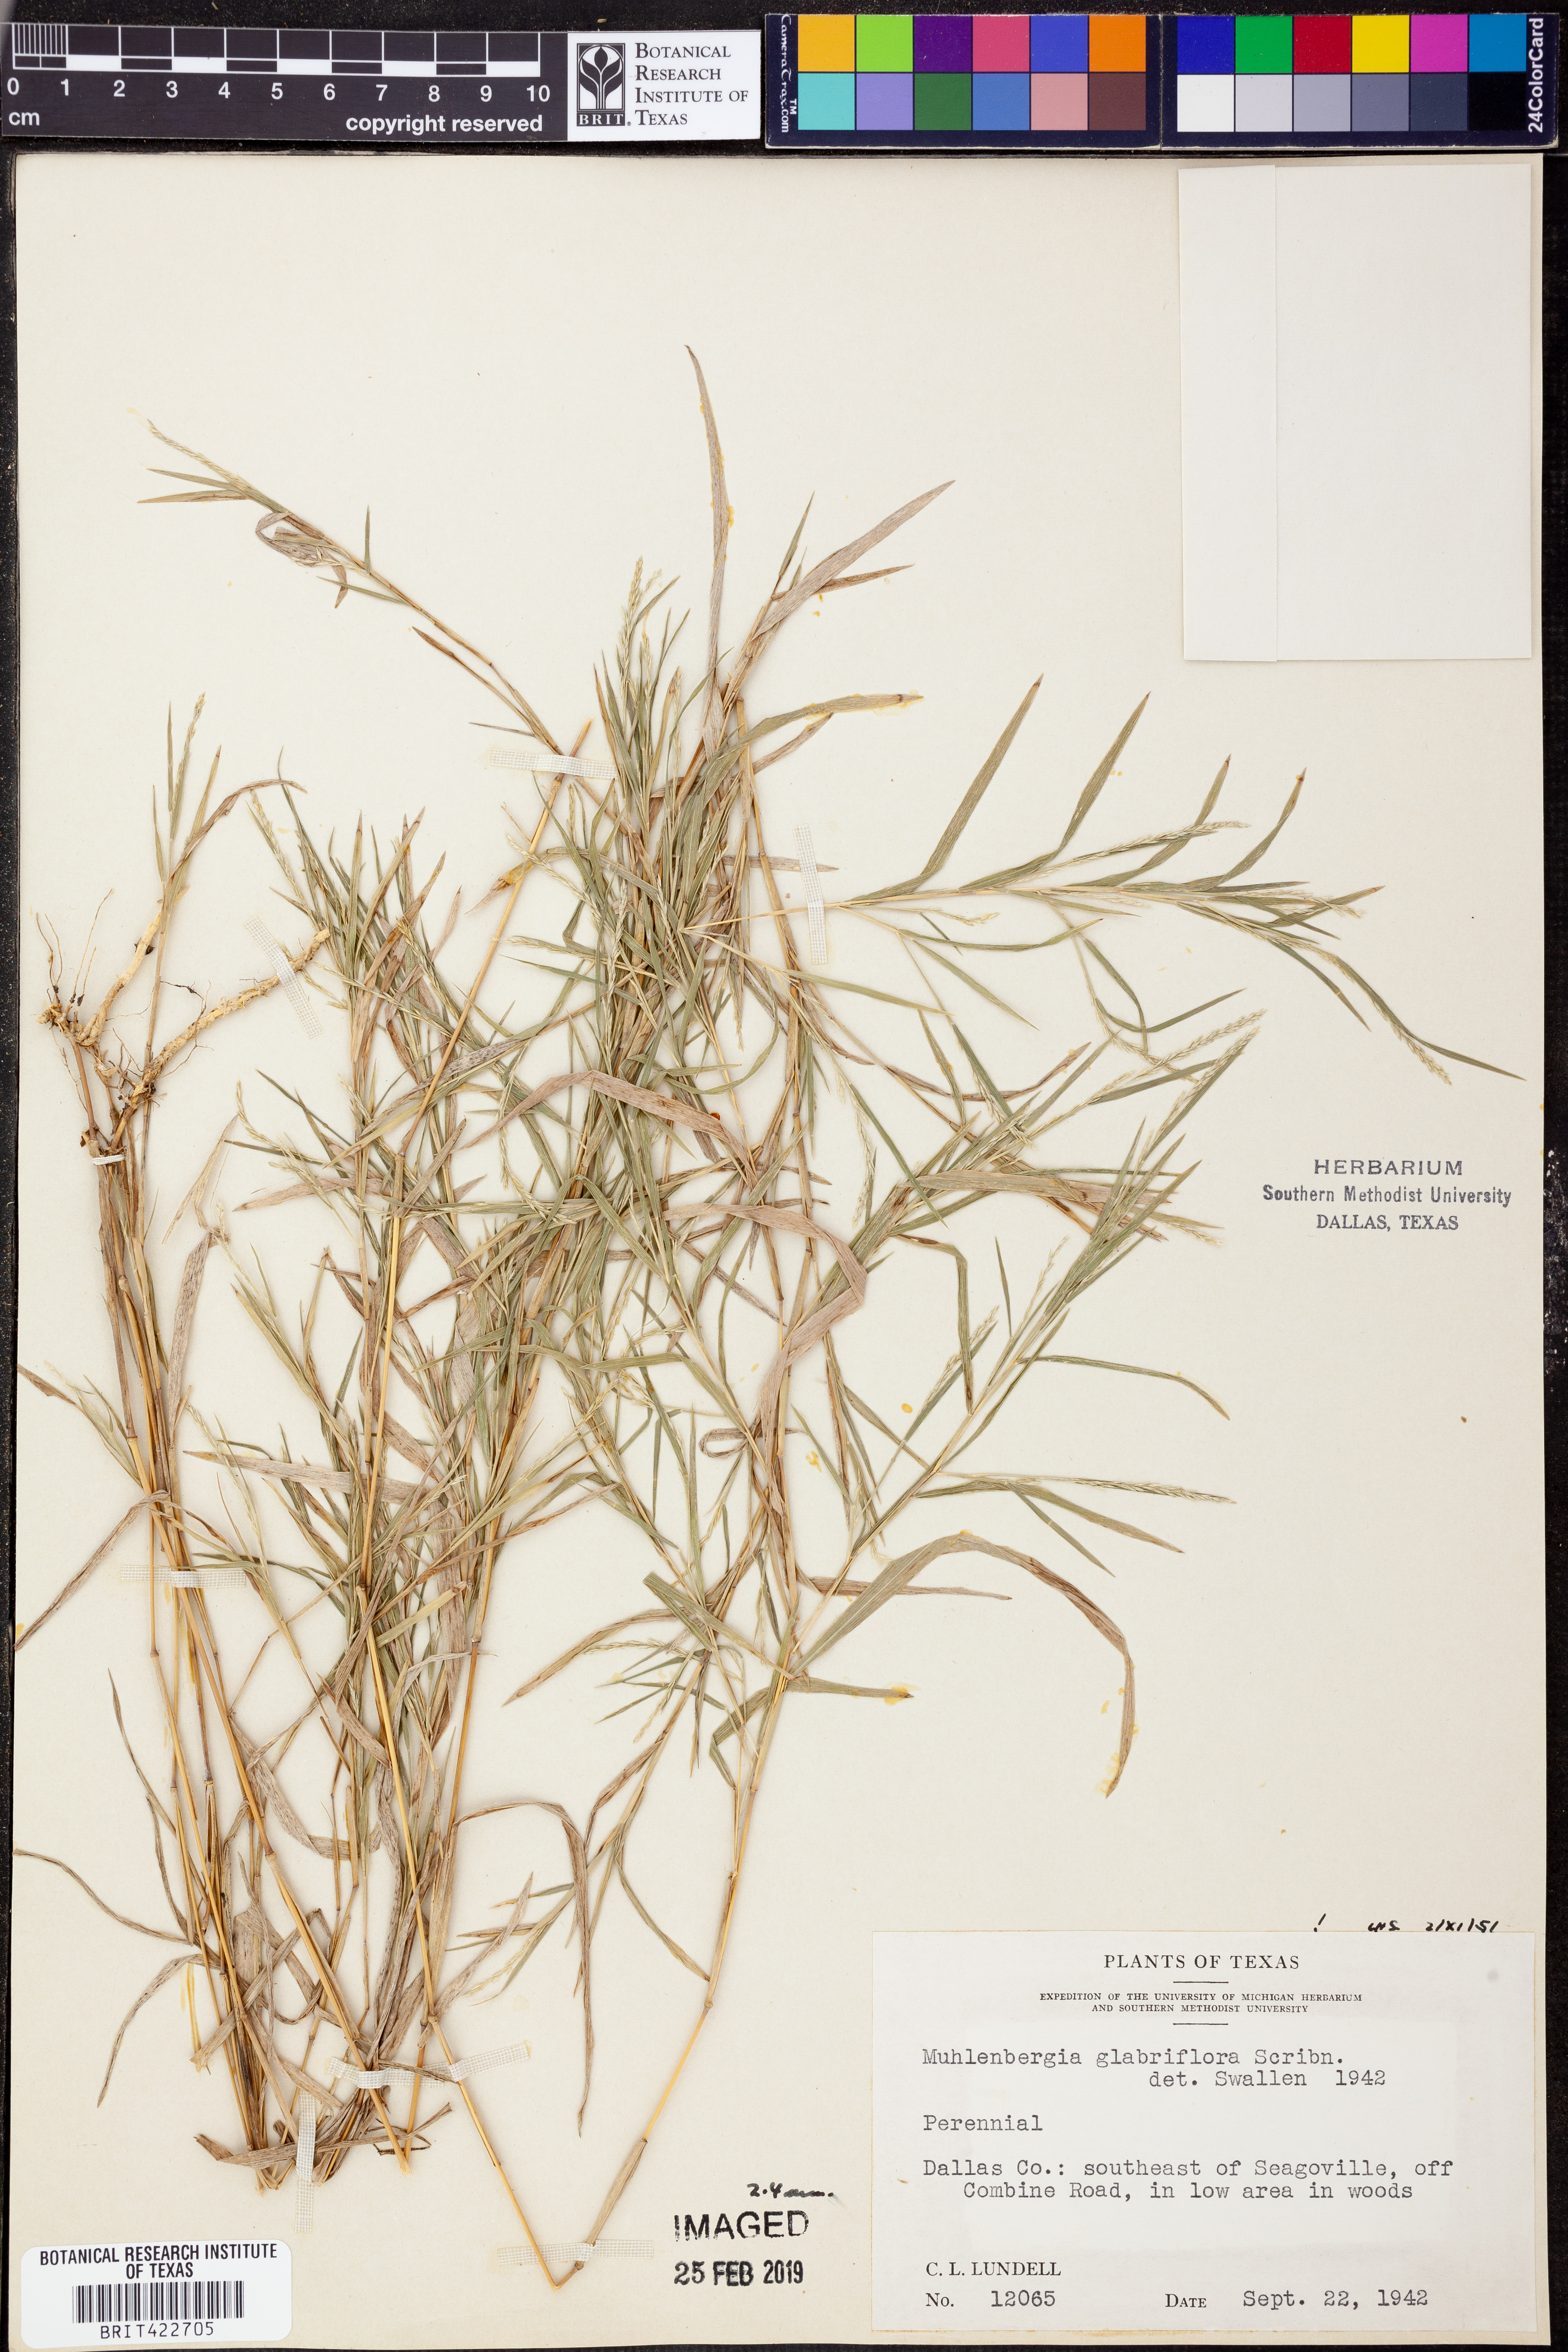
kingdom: Plantae
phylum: Tracheophyta
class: Liliopsida
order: Poales
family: Poaceae
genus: Muhlenbergia
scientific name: Muhlenbergia glabrifloris
